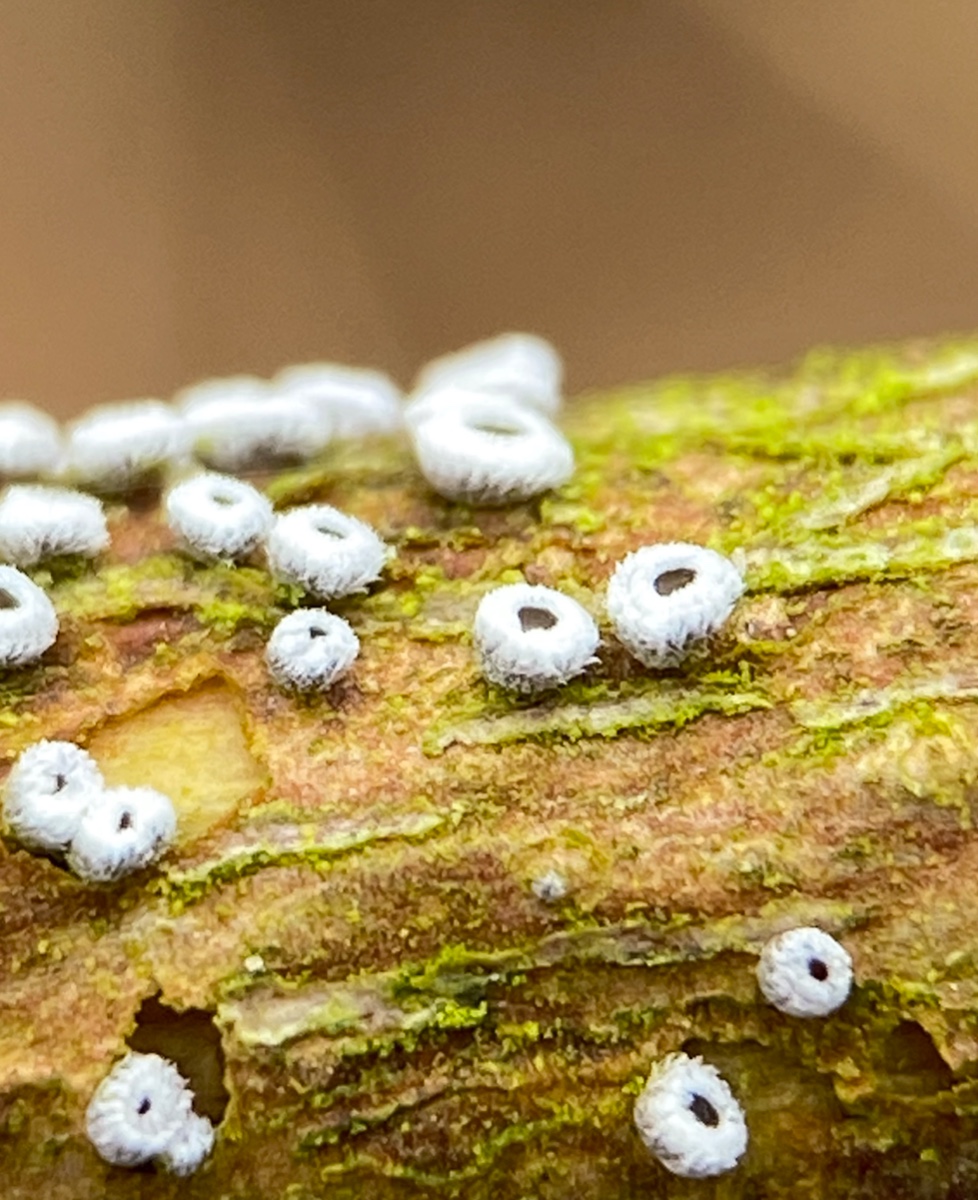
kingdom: Fungi
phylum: Basidiomycota
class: Agaricomycetes
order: Agaricales
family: Niaceae
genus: Lachnella
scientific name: Lachnella alboviolascens
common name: grå frynserede
